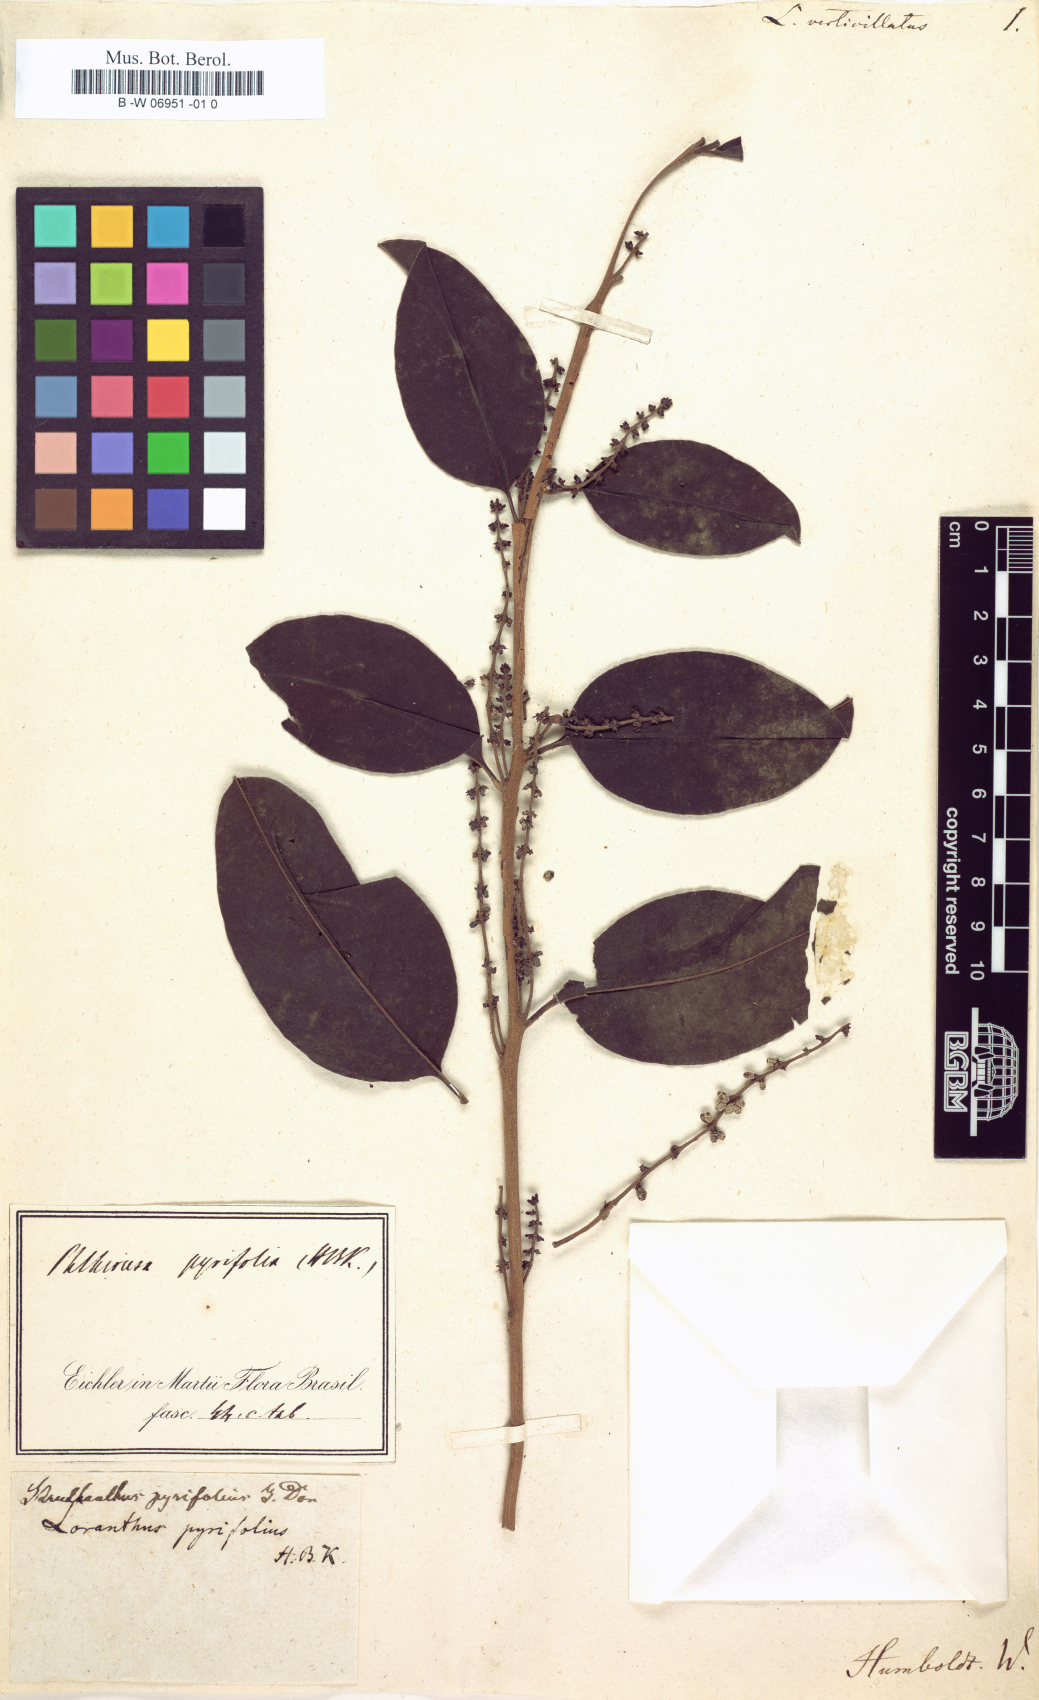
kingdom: Plantae
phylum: Tracheophyta
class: Magnoliopsida
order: Santalales
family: Loranthaceae
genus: Tristerix
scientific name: Tristerix verticillatus
